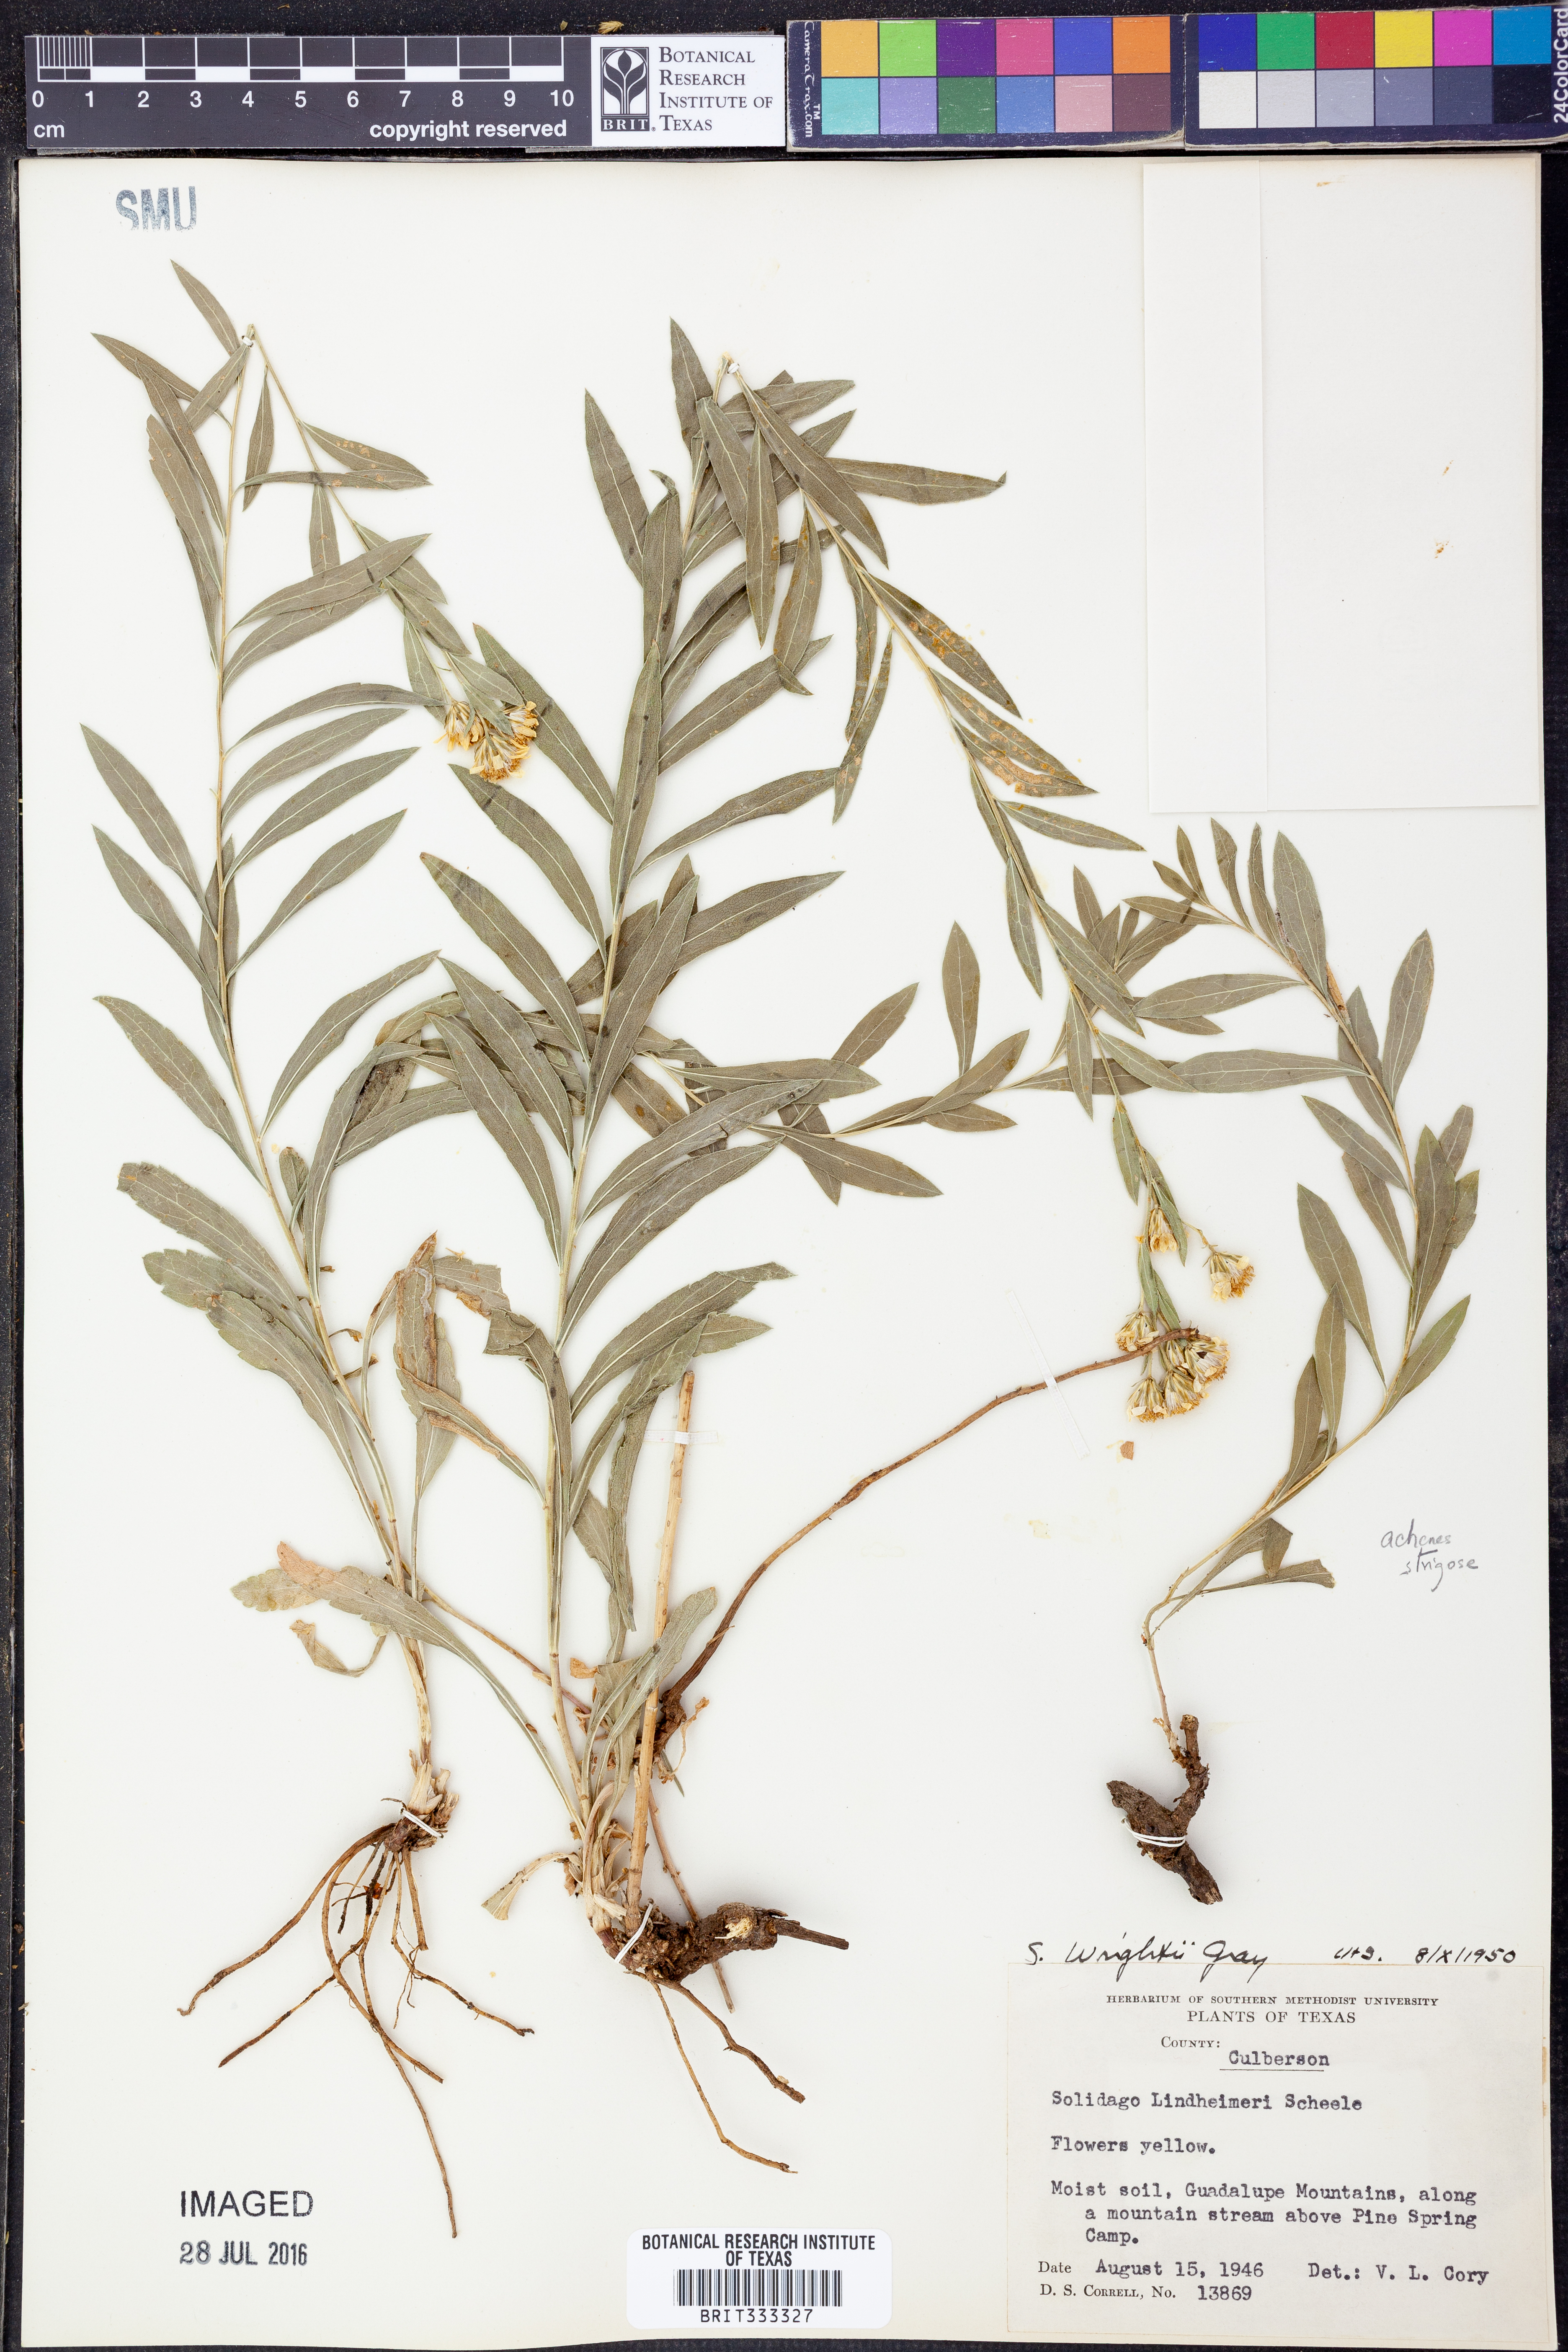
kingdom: Plantae
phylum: Tracheophyta
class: Magnoliopsida
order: Asterales
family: Asteraceae
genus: Solidago
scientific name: Solidago wrightii
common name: Wright's goldenrod
